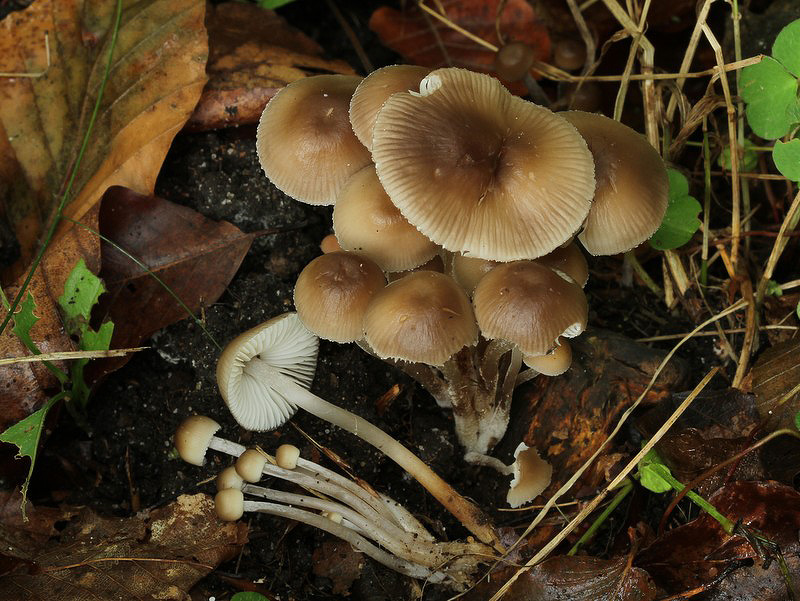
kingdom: Fungi
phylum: Basidiomycota
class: Agaricomycetes
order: Agaricales
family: Mycenaceae
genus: Mycena
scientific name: Mycena inclinata
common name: nikkende huesvamp
